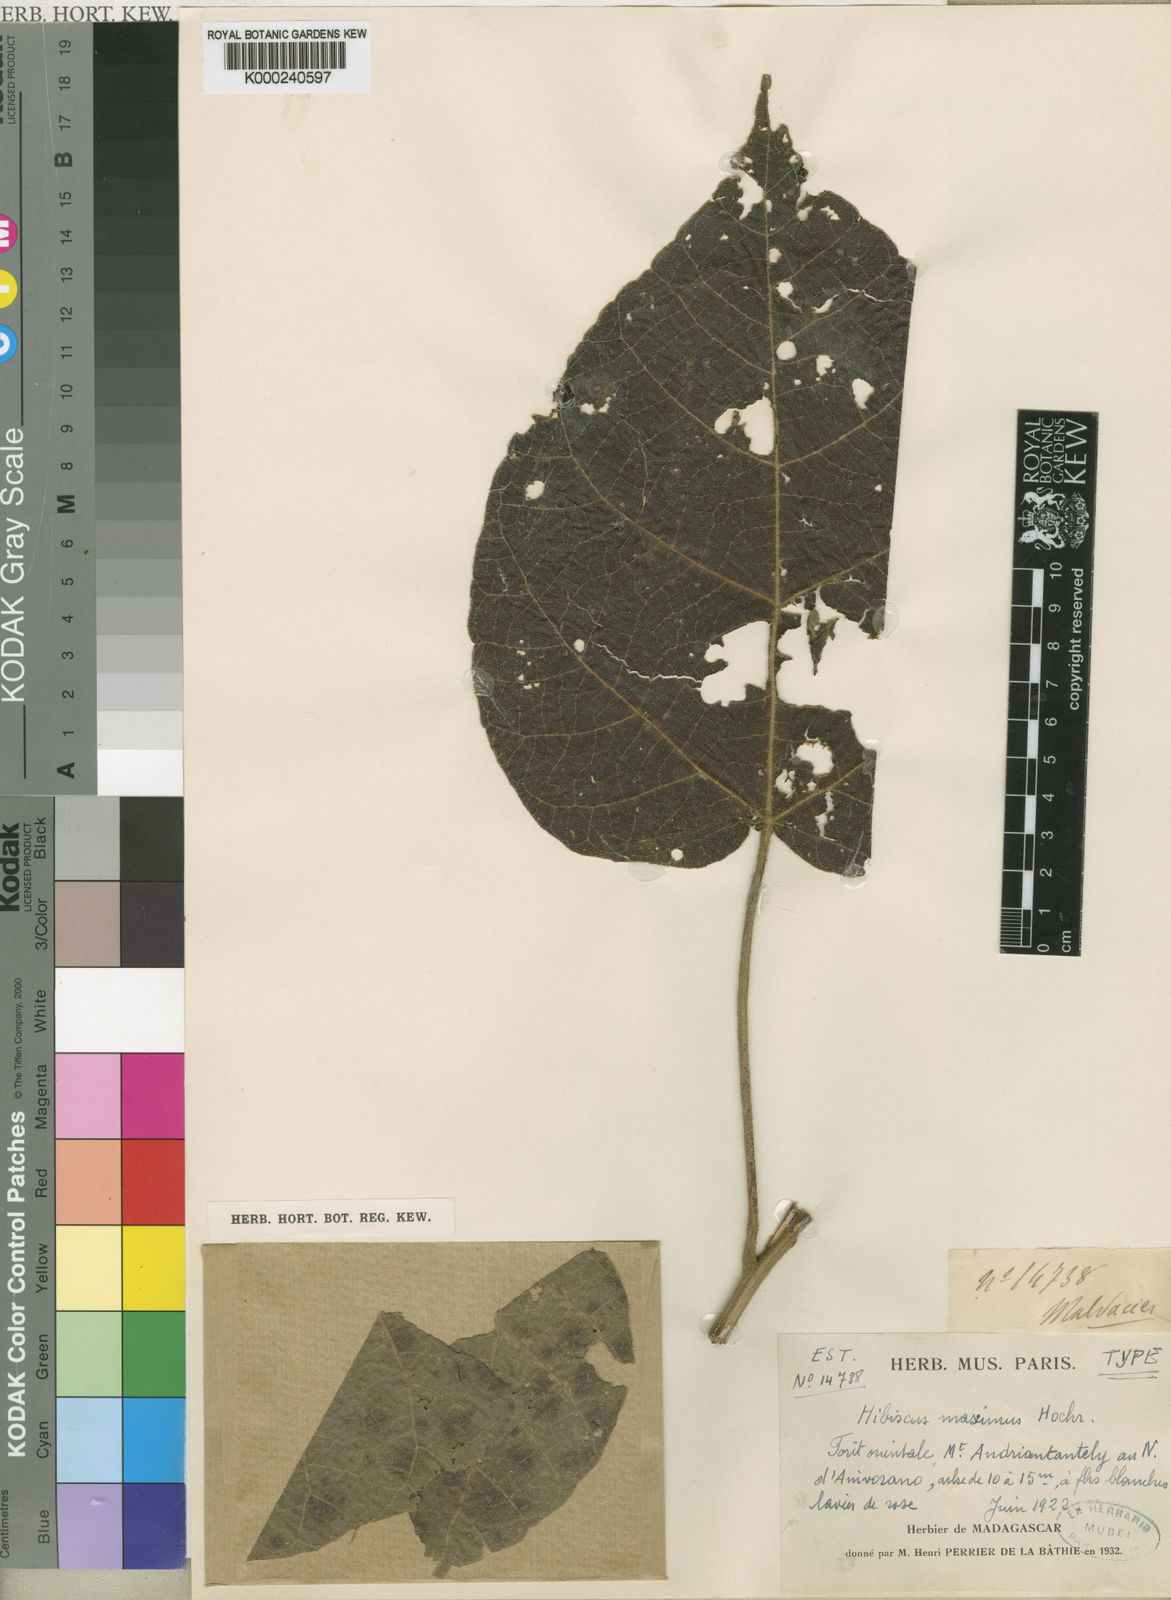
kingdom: Plantae
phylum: Tracheophyta
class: Magnoliopsida
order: Malvales
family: Malvaceae
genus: Hibiscus
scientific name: Hibiscus maximus
